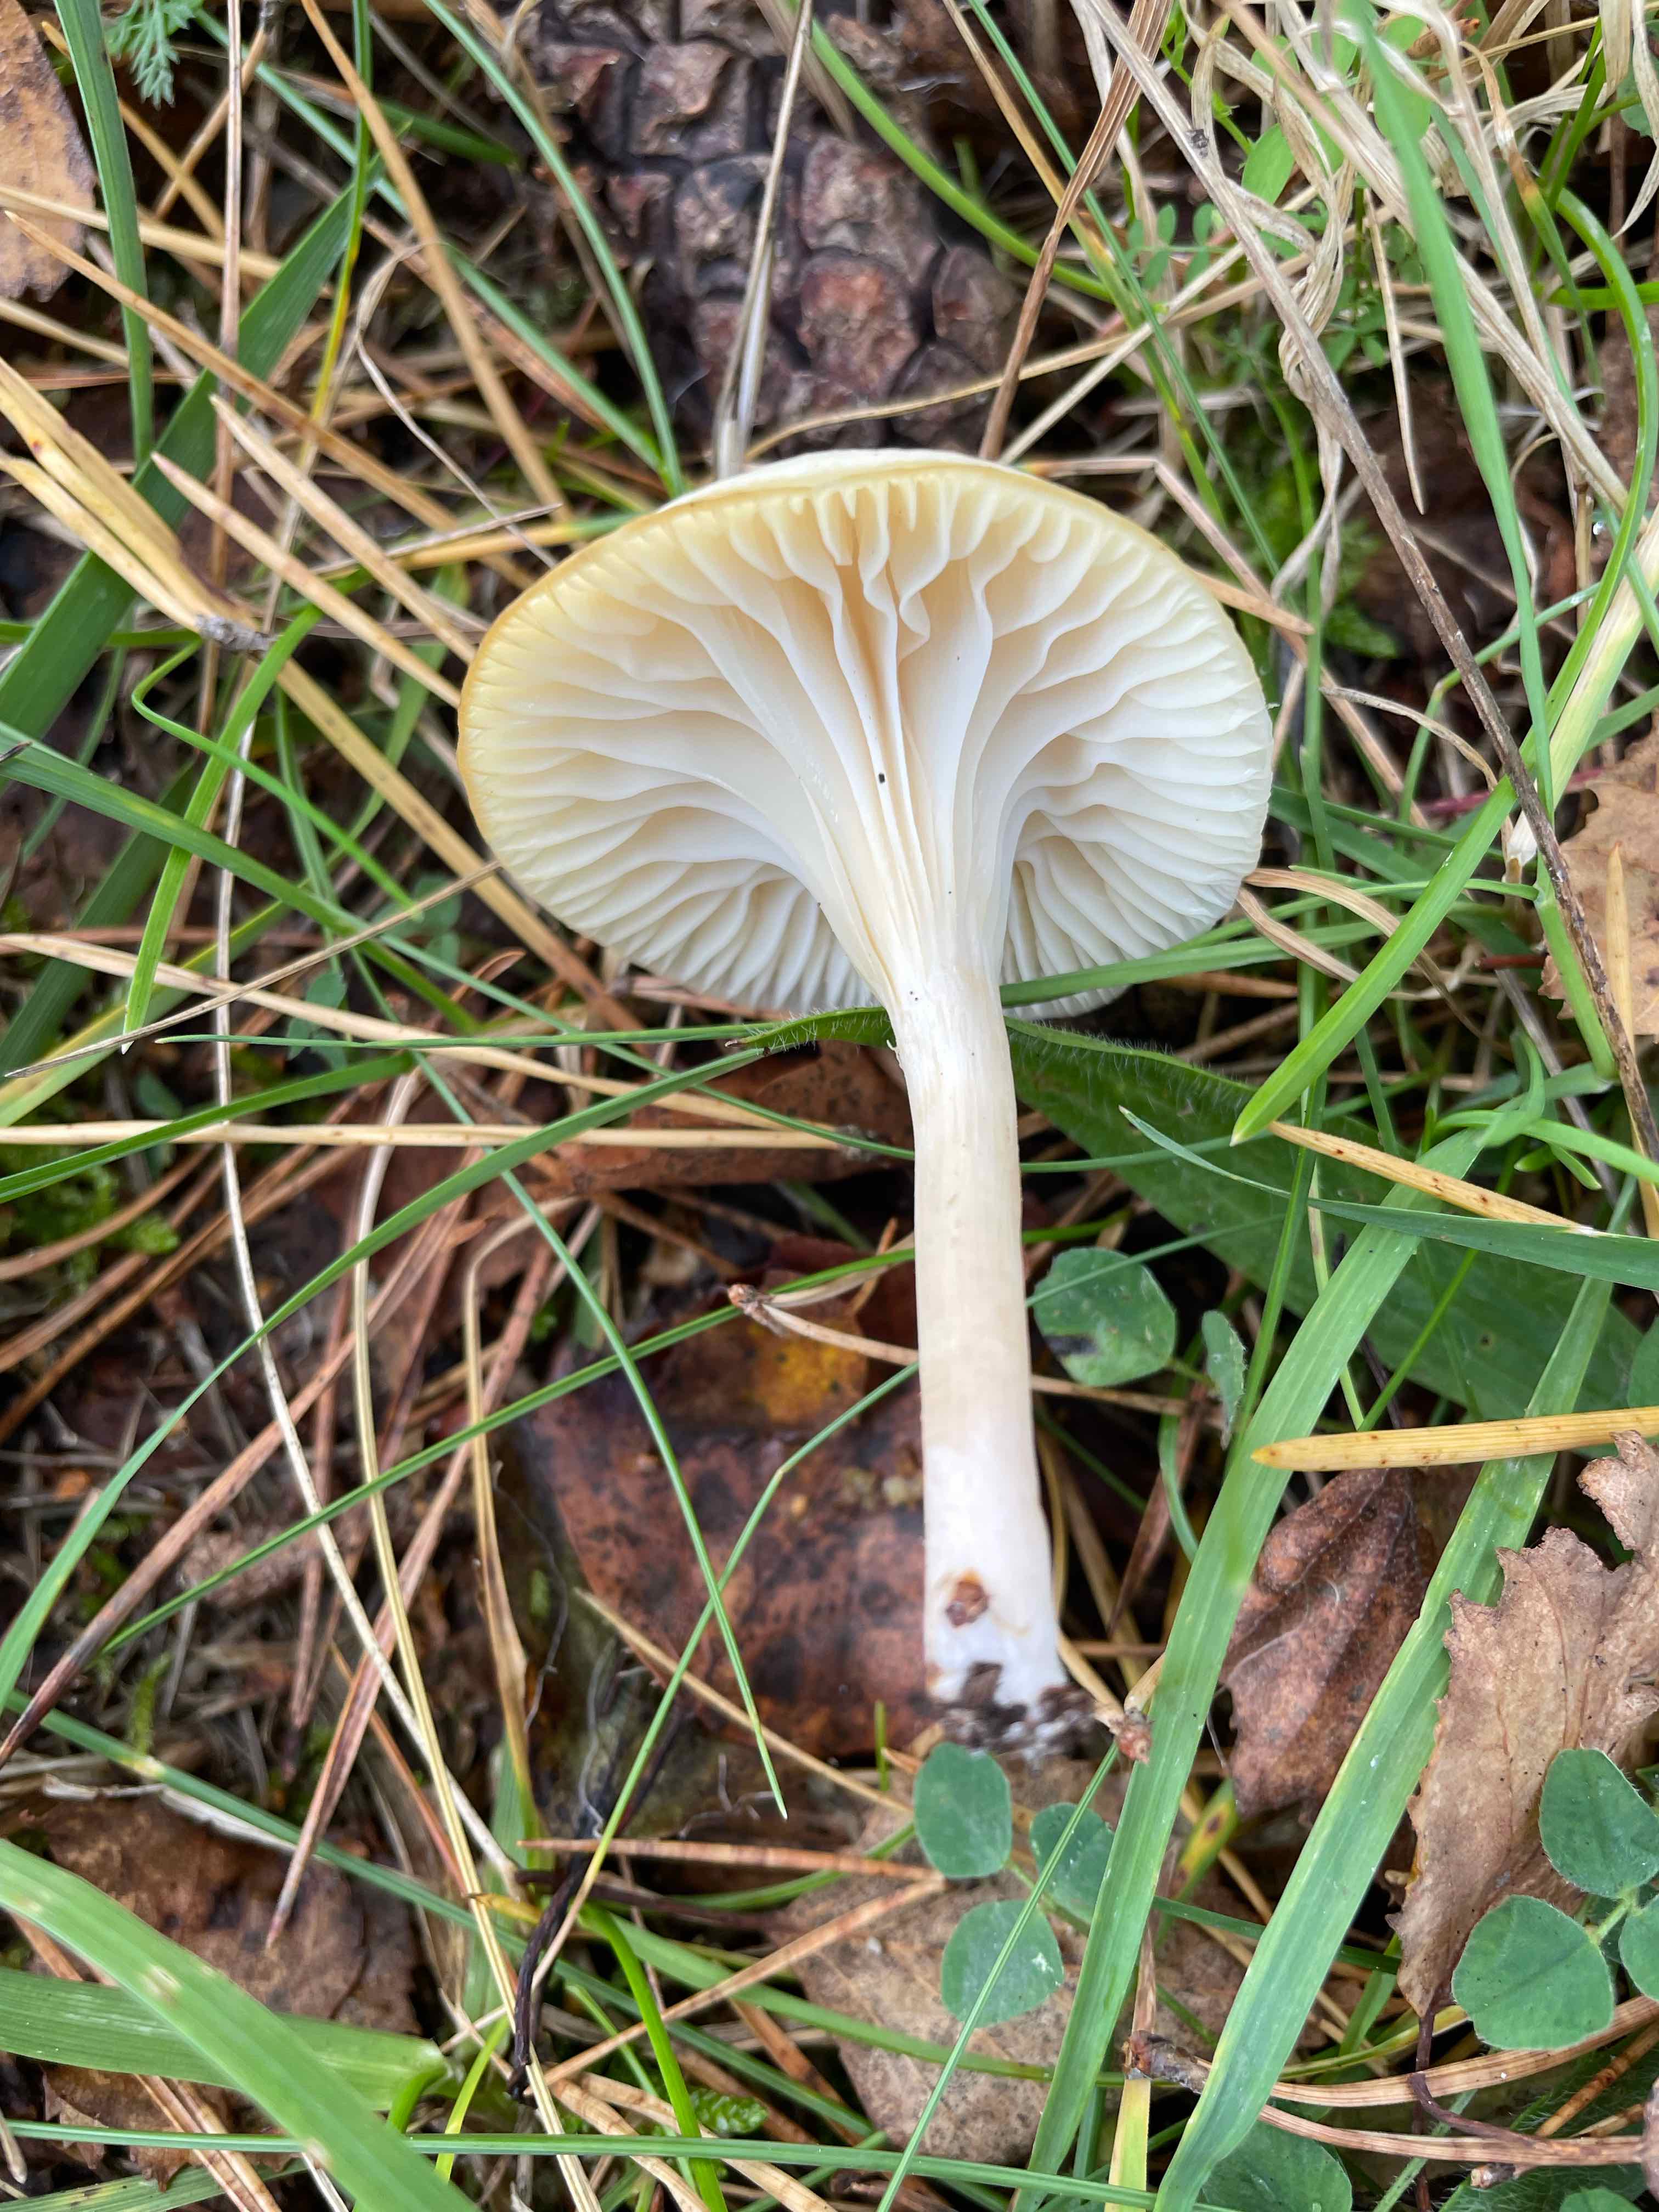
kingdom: Fungi
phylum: Basidiomycota
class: Agaricomycetes
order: Agaricales
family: Hygrophoraceae
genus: Cuphophyllus
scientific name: Cuphophyllus virgineus
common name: snehvid vokshat
